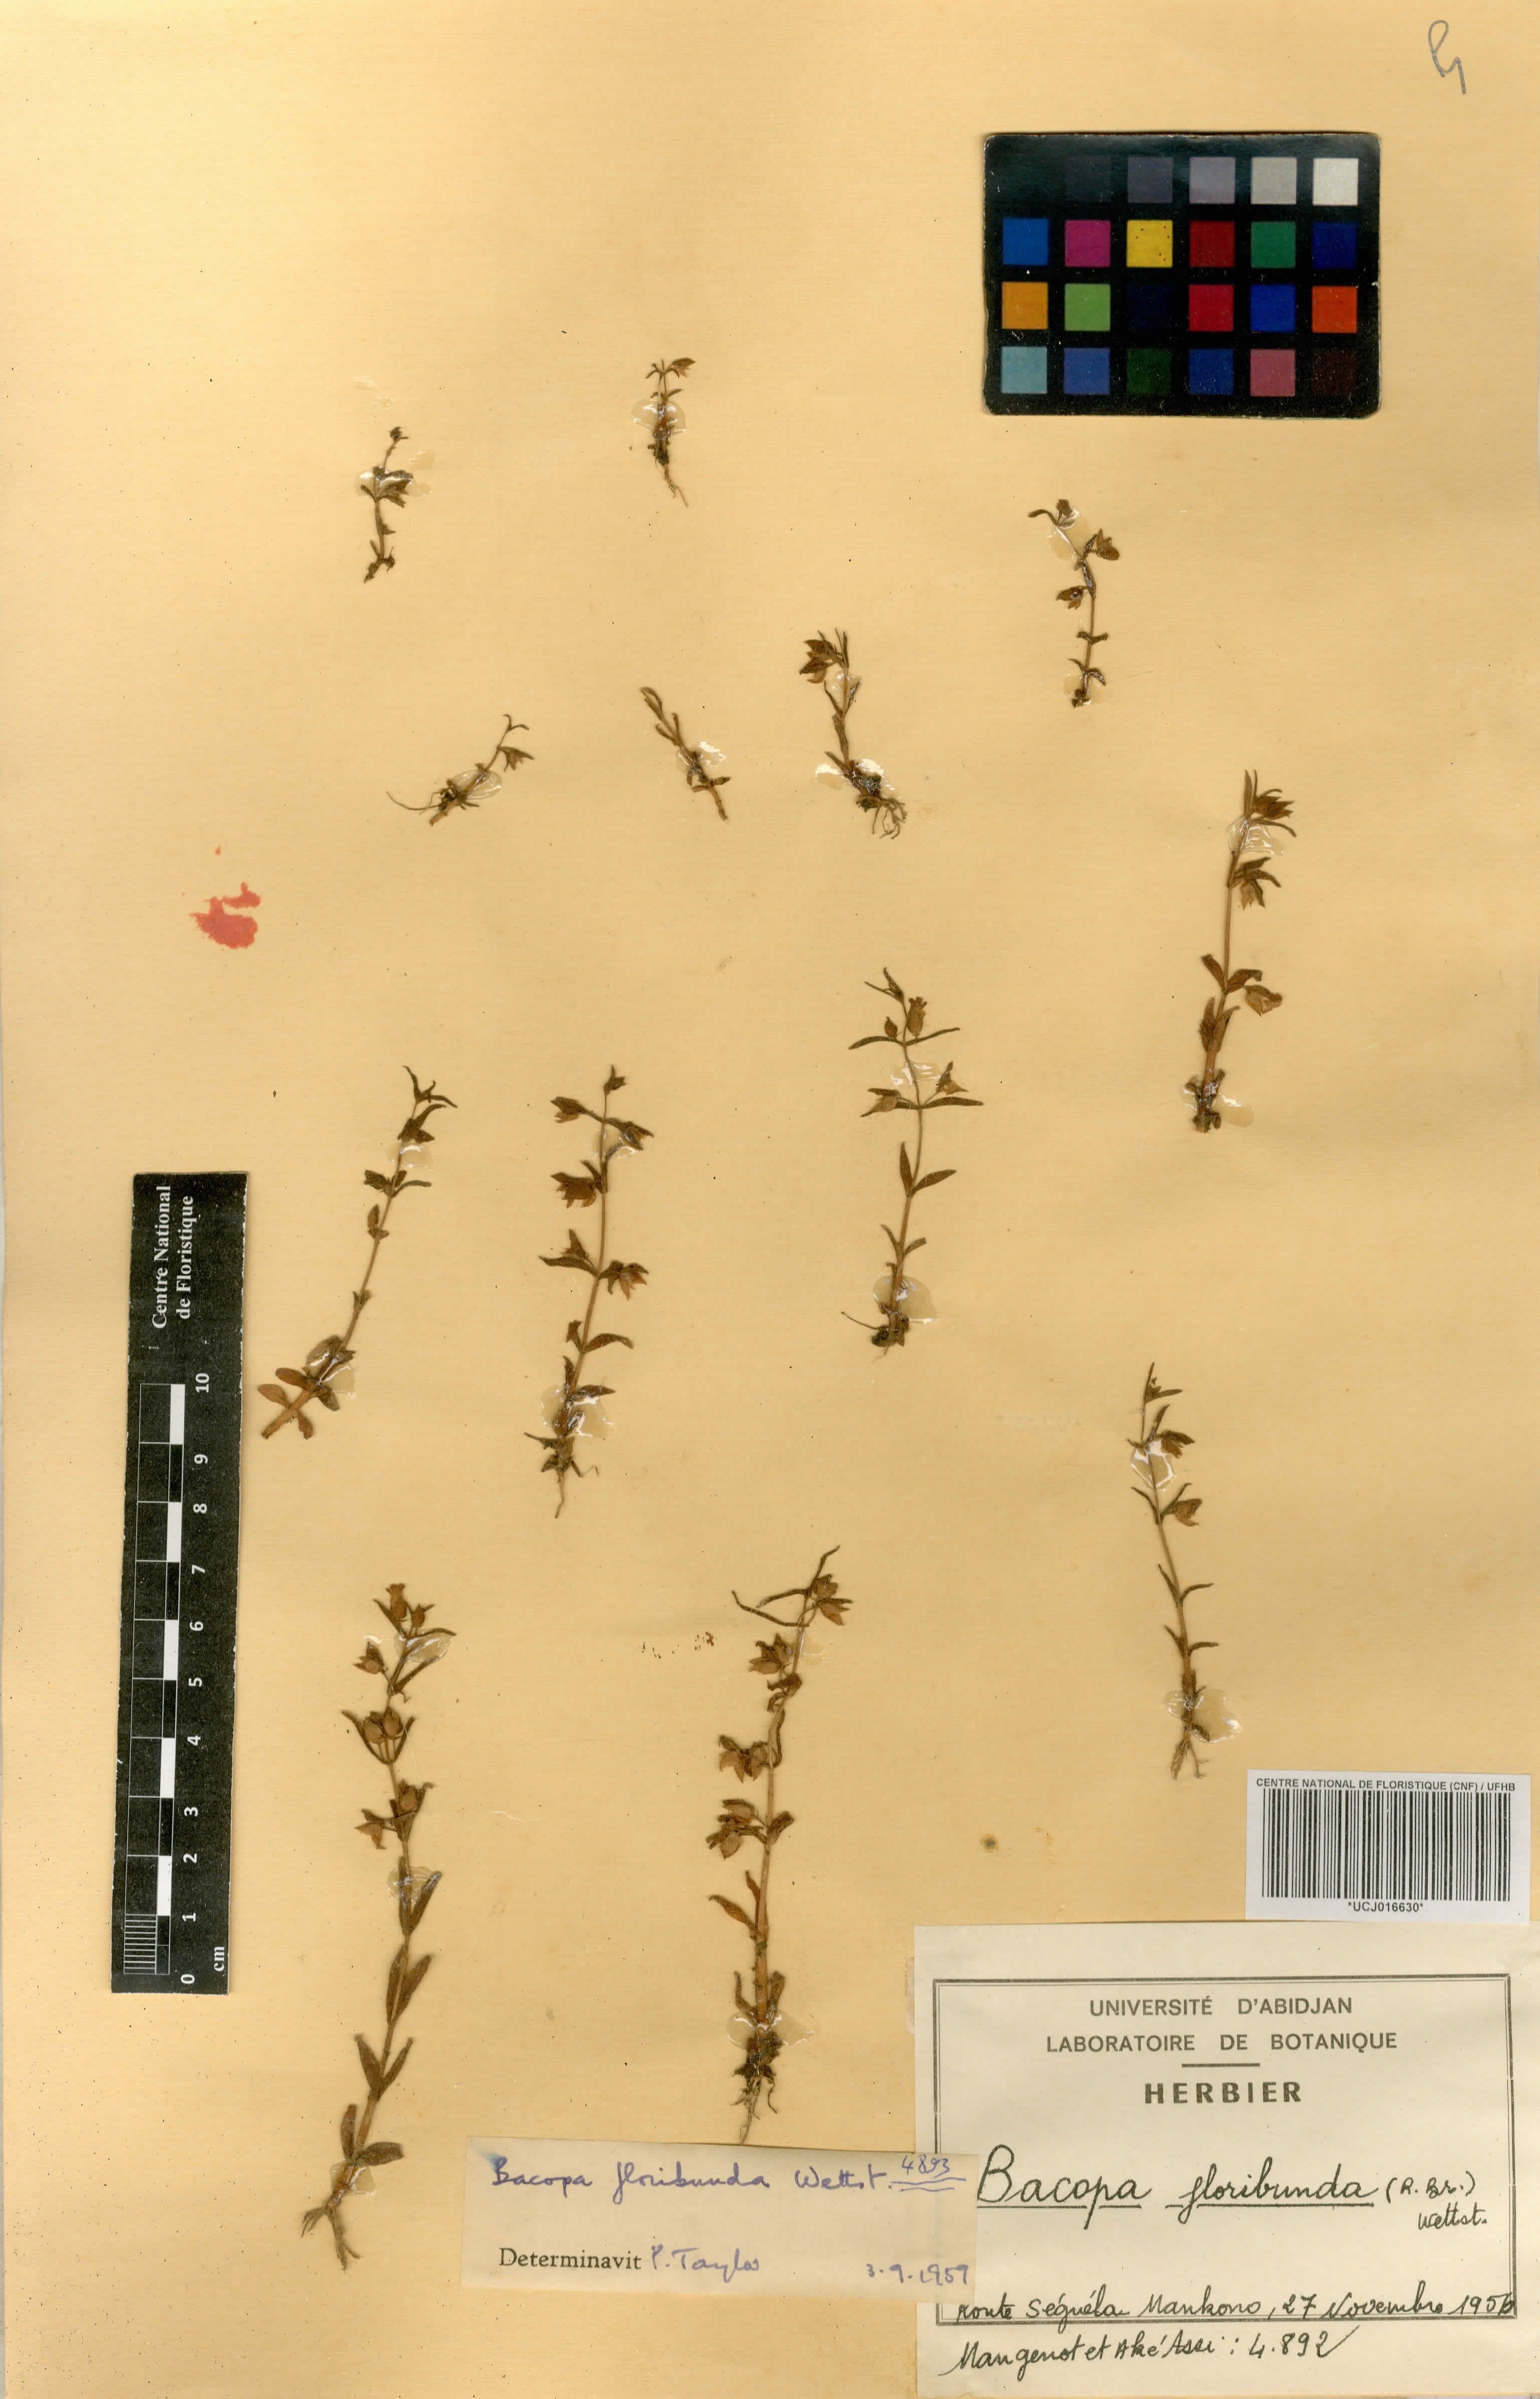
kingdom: Plantae
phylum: Tracheophyta
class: Magnoliopsida
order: Lamiales
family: Plantaginaceae
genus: Bacopa
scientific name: Bacopa floribunda
